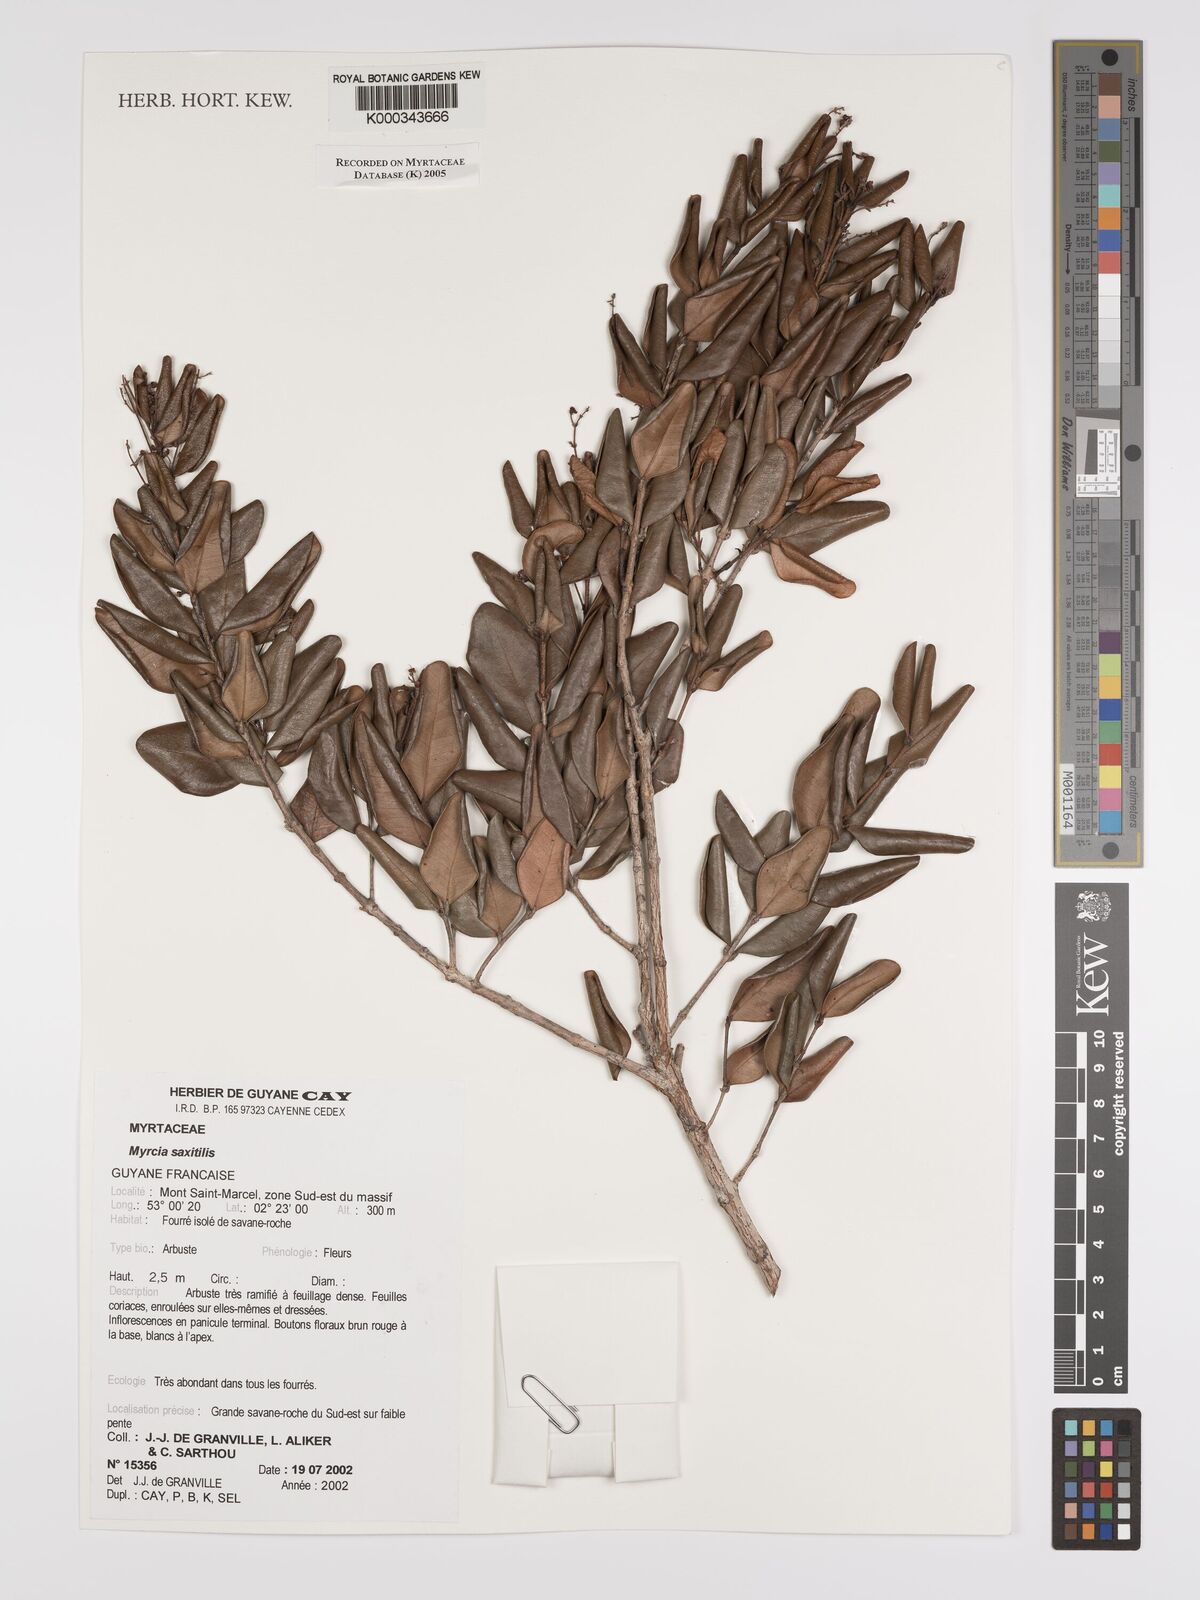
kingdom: Plantae
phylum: Tracheophyta
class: Magnoliopsida
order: Myrtales
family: Myrtaceae
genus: Myrcia
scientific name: Myrcia saxatilis
